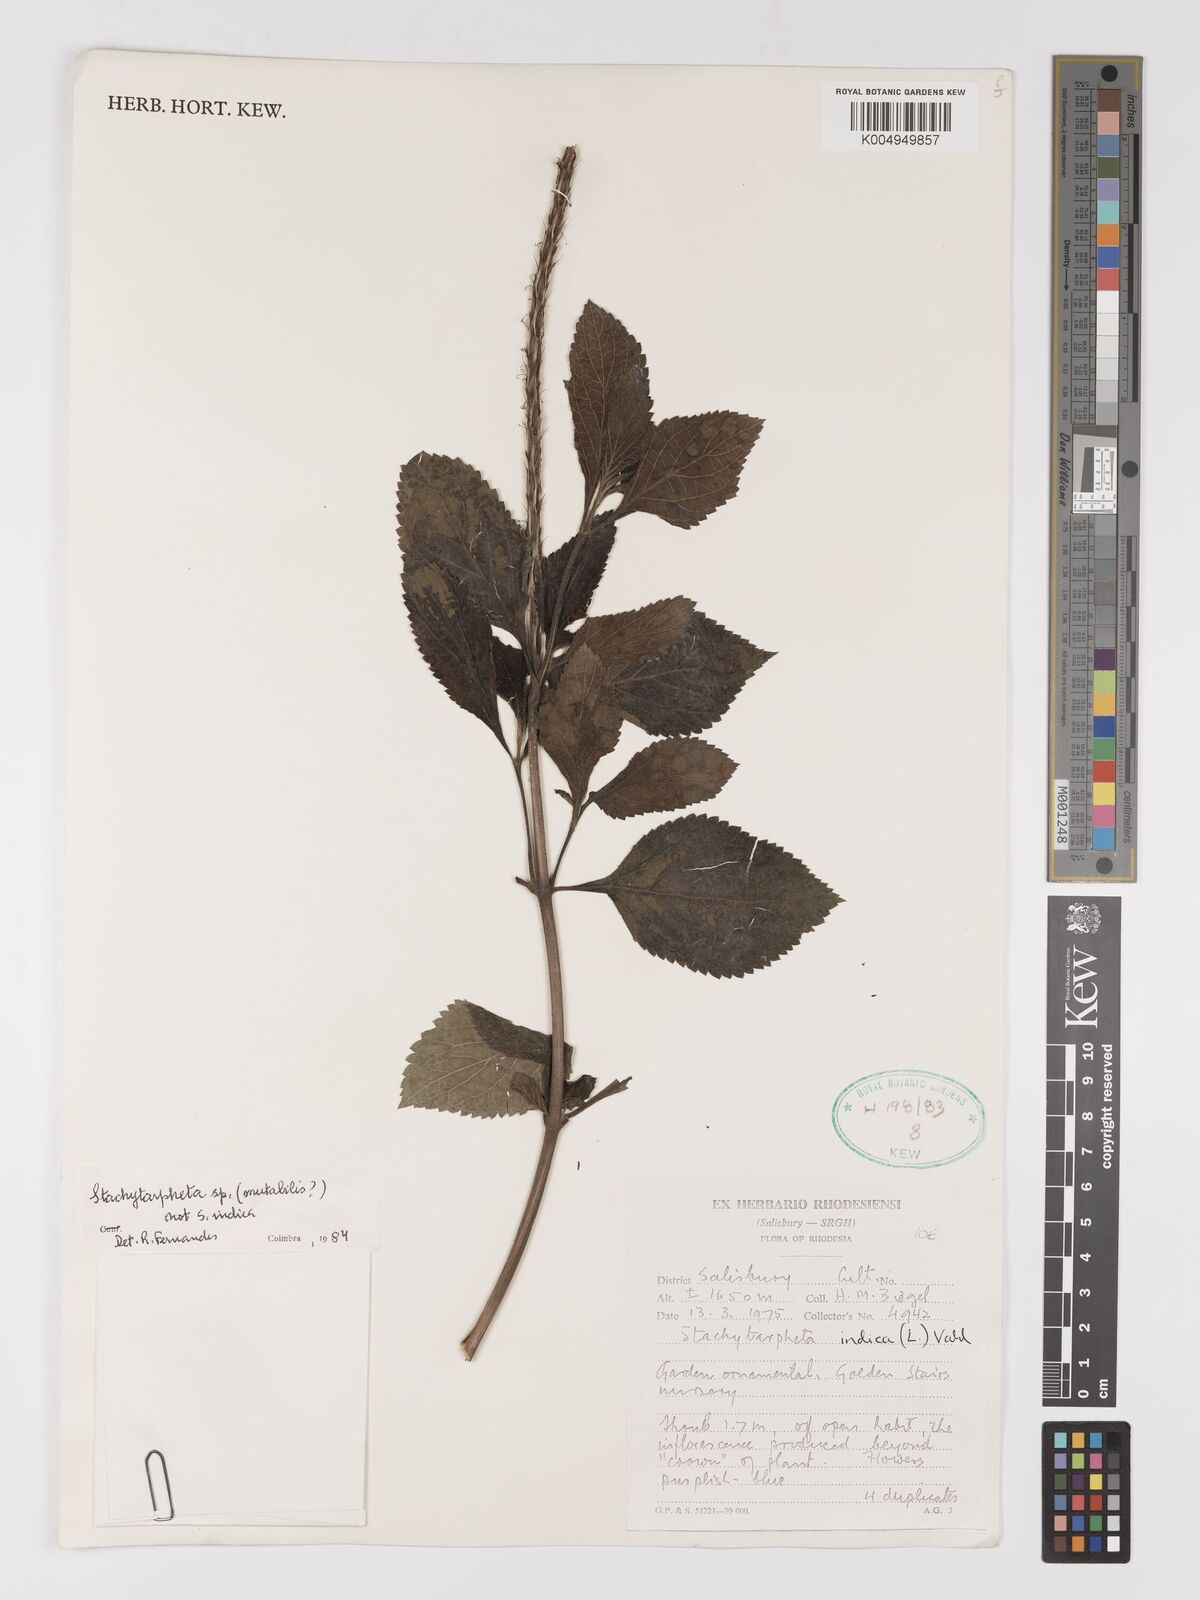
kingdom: Plantae
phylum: Tracheophyta
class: Magnoliopsida
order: Lamiales
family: Verbenaceae
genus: Stachytarpheta
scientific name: Stachytarpheta mutabilis
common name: Changeable velvetberry
